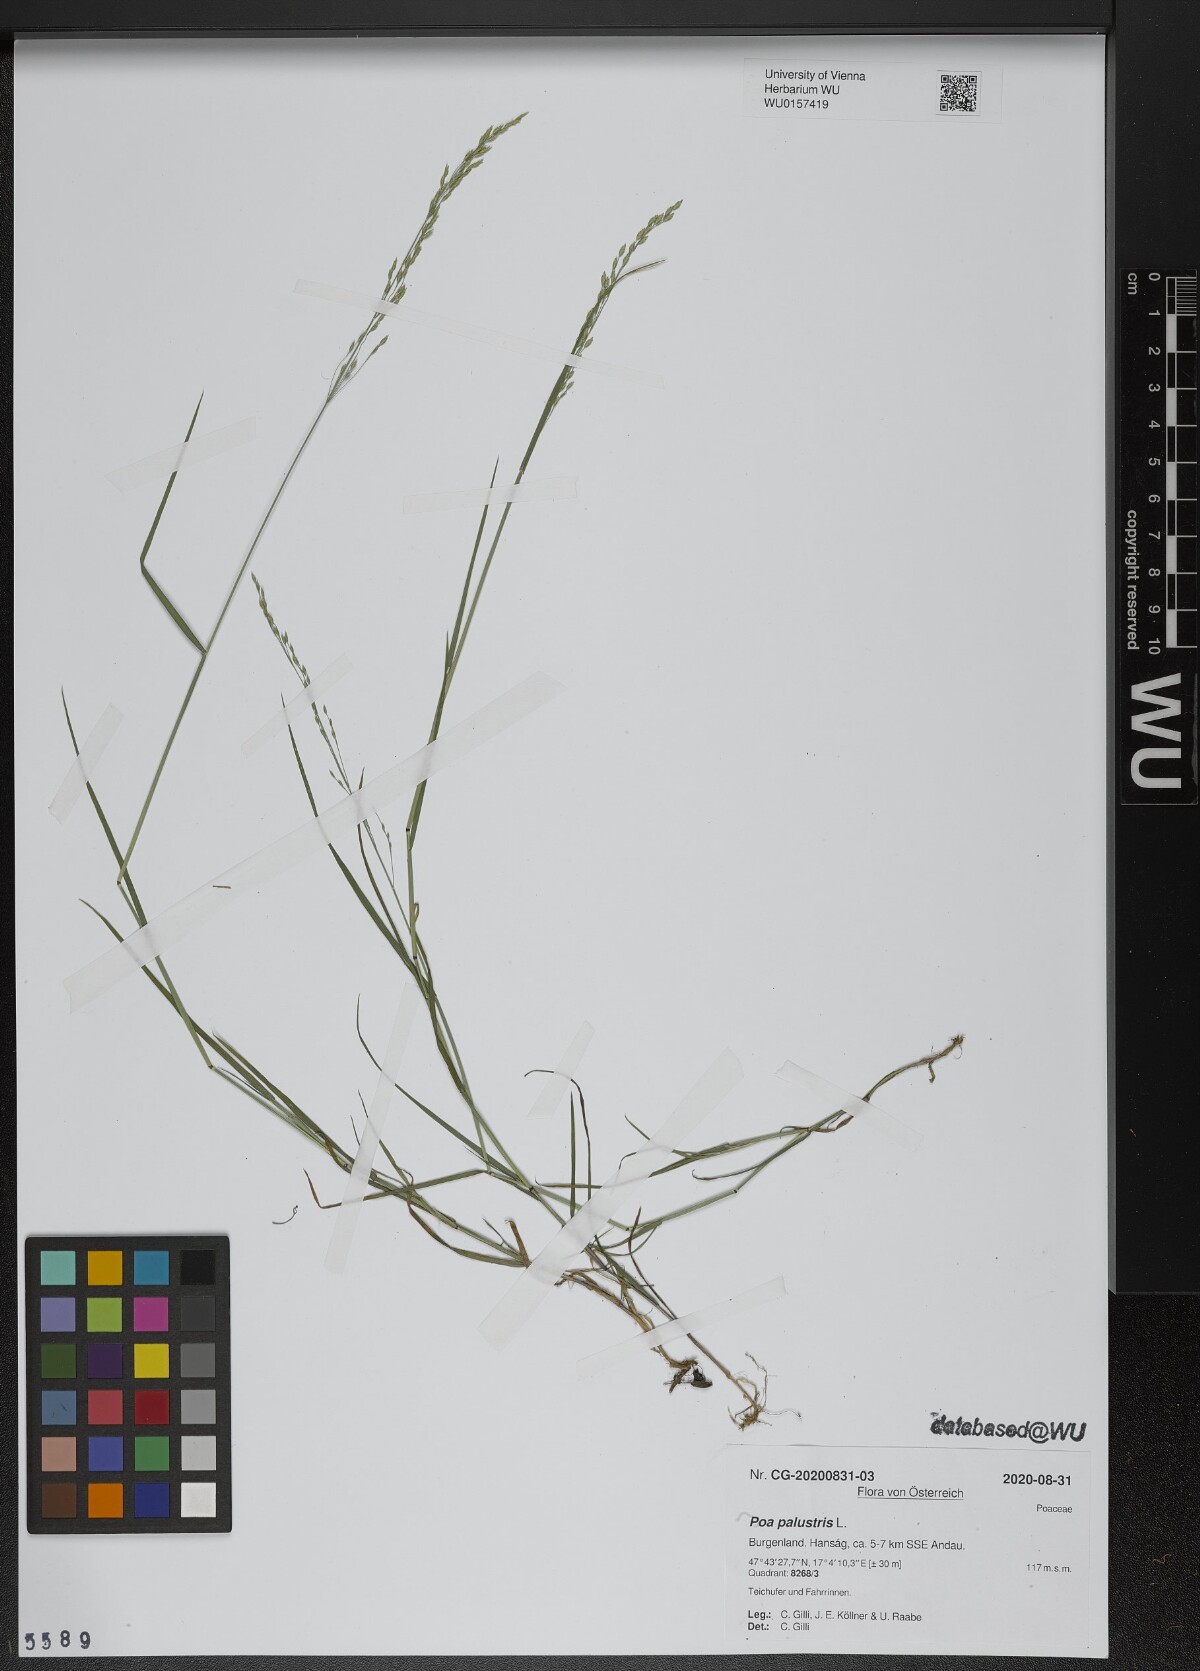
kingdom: Plantae
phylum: Tracheophyta
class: Liliopsida
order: Poales
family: Poaceae
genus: Poa
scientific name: Poa palustris
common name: Swamp meadow-grass
